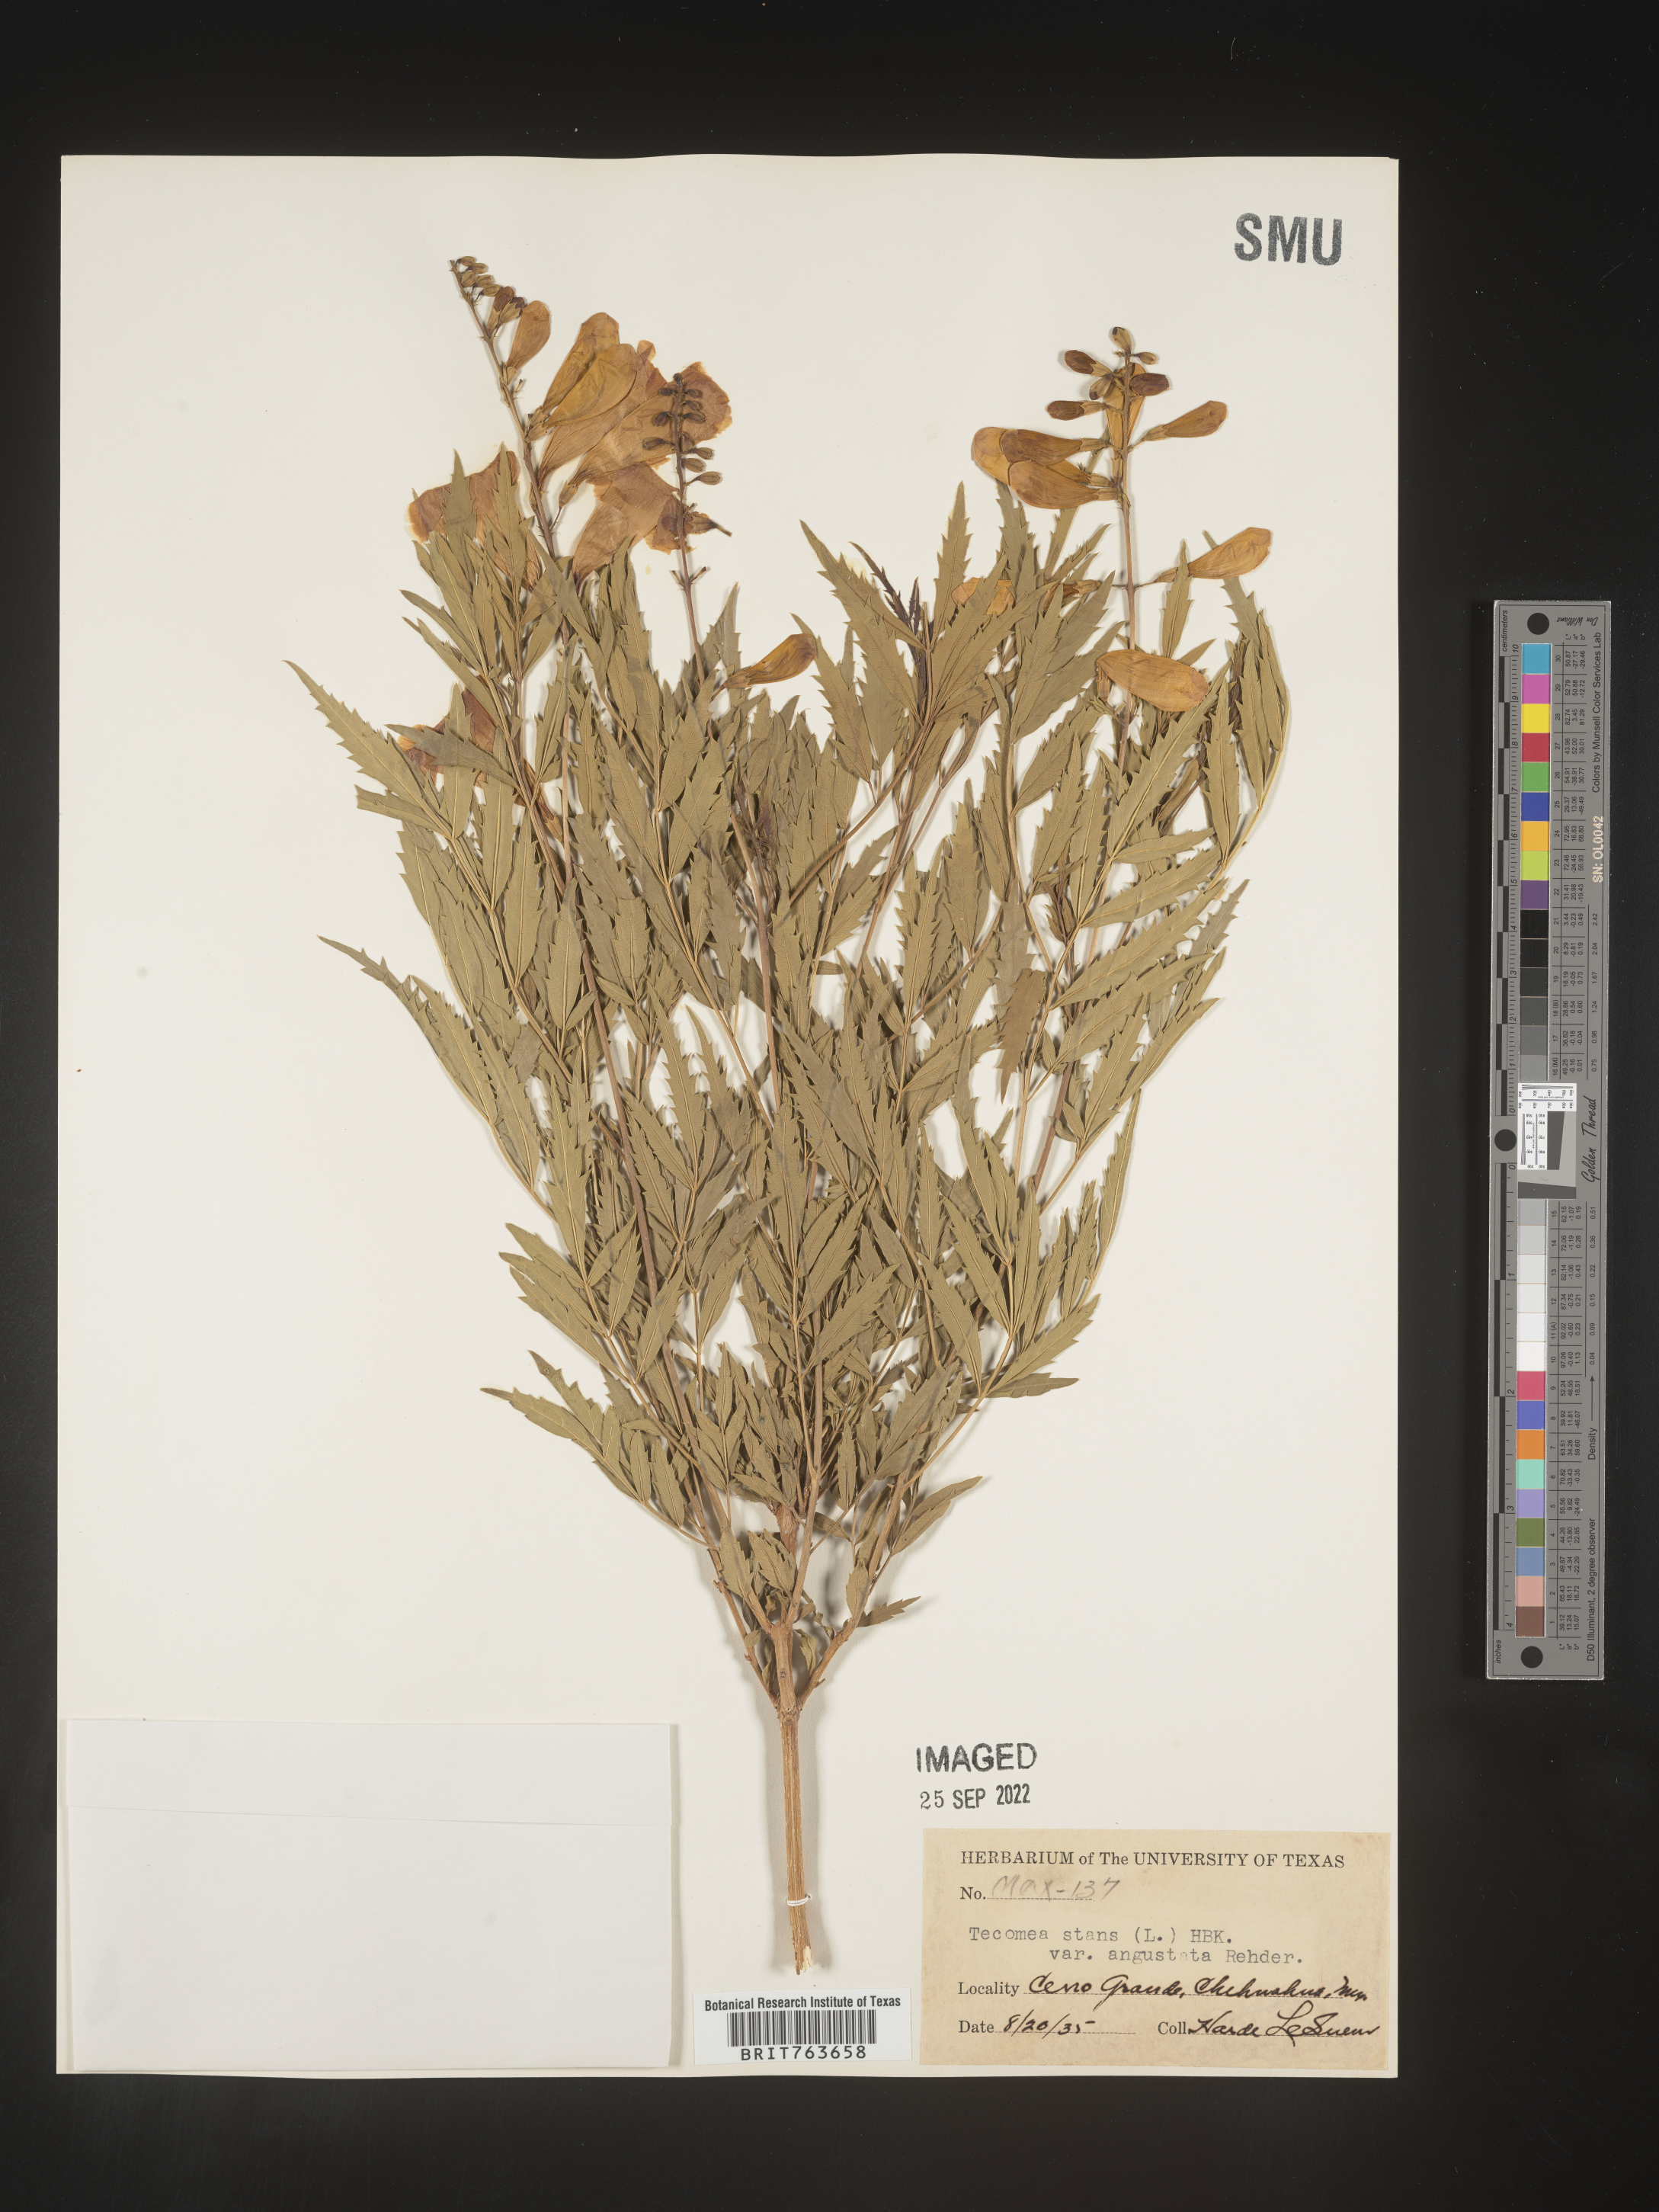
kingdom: Plantae
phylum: Tracheophyta
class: Magnoliopsida
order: Lamiales
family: Bignoniaceae
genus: Tecoma
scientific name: Tecoma
